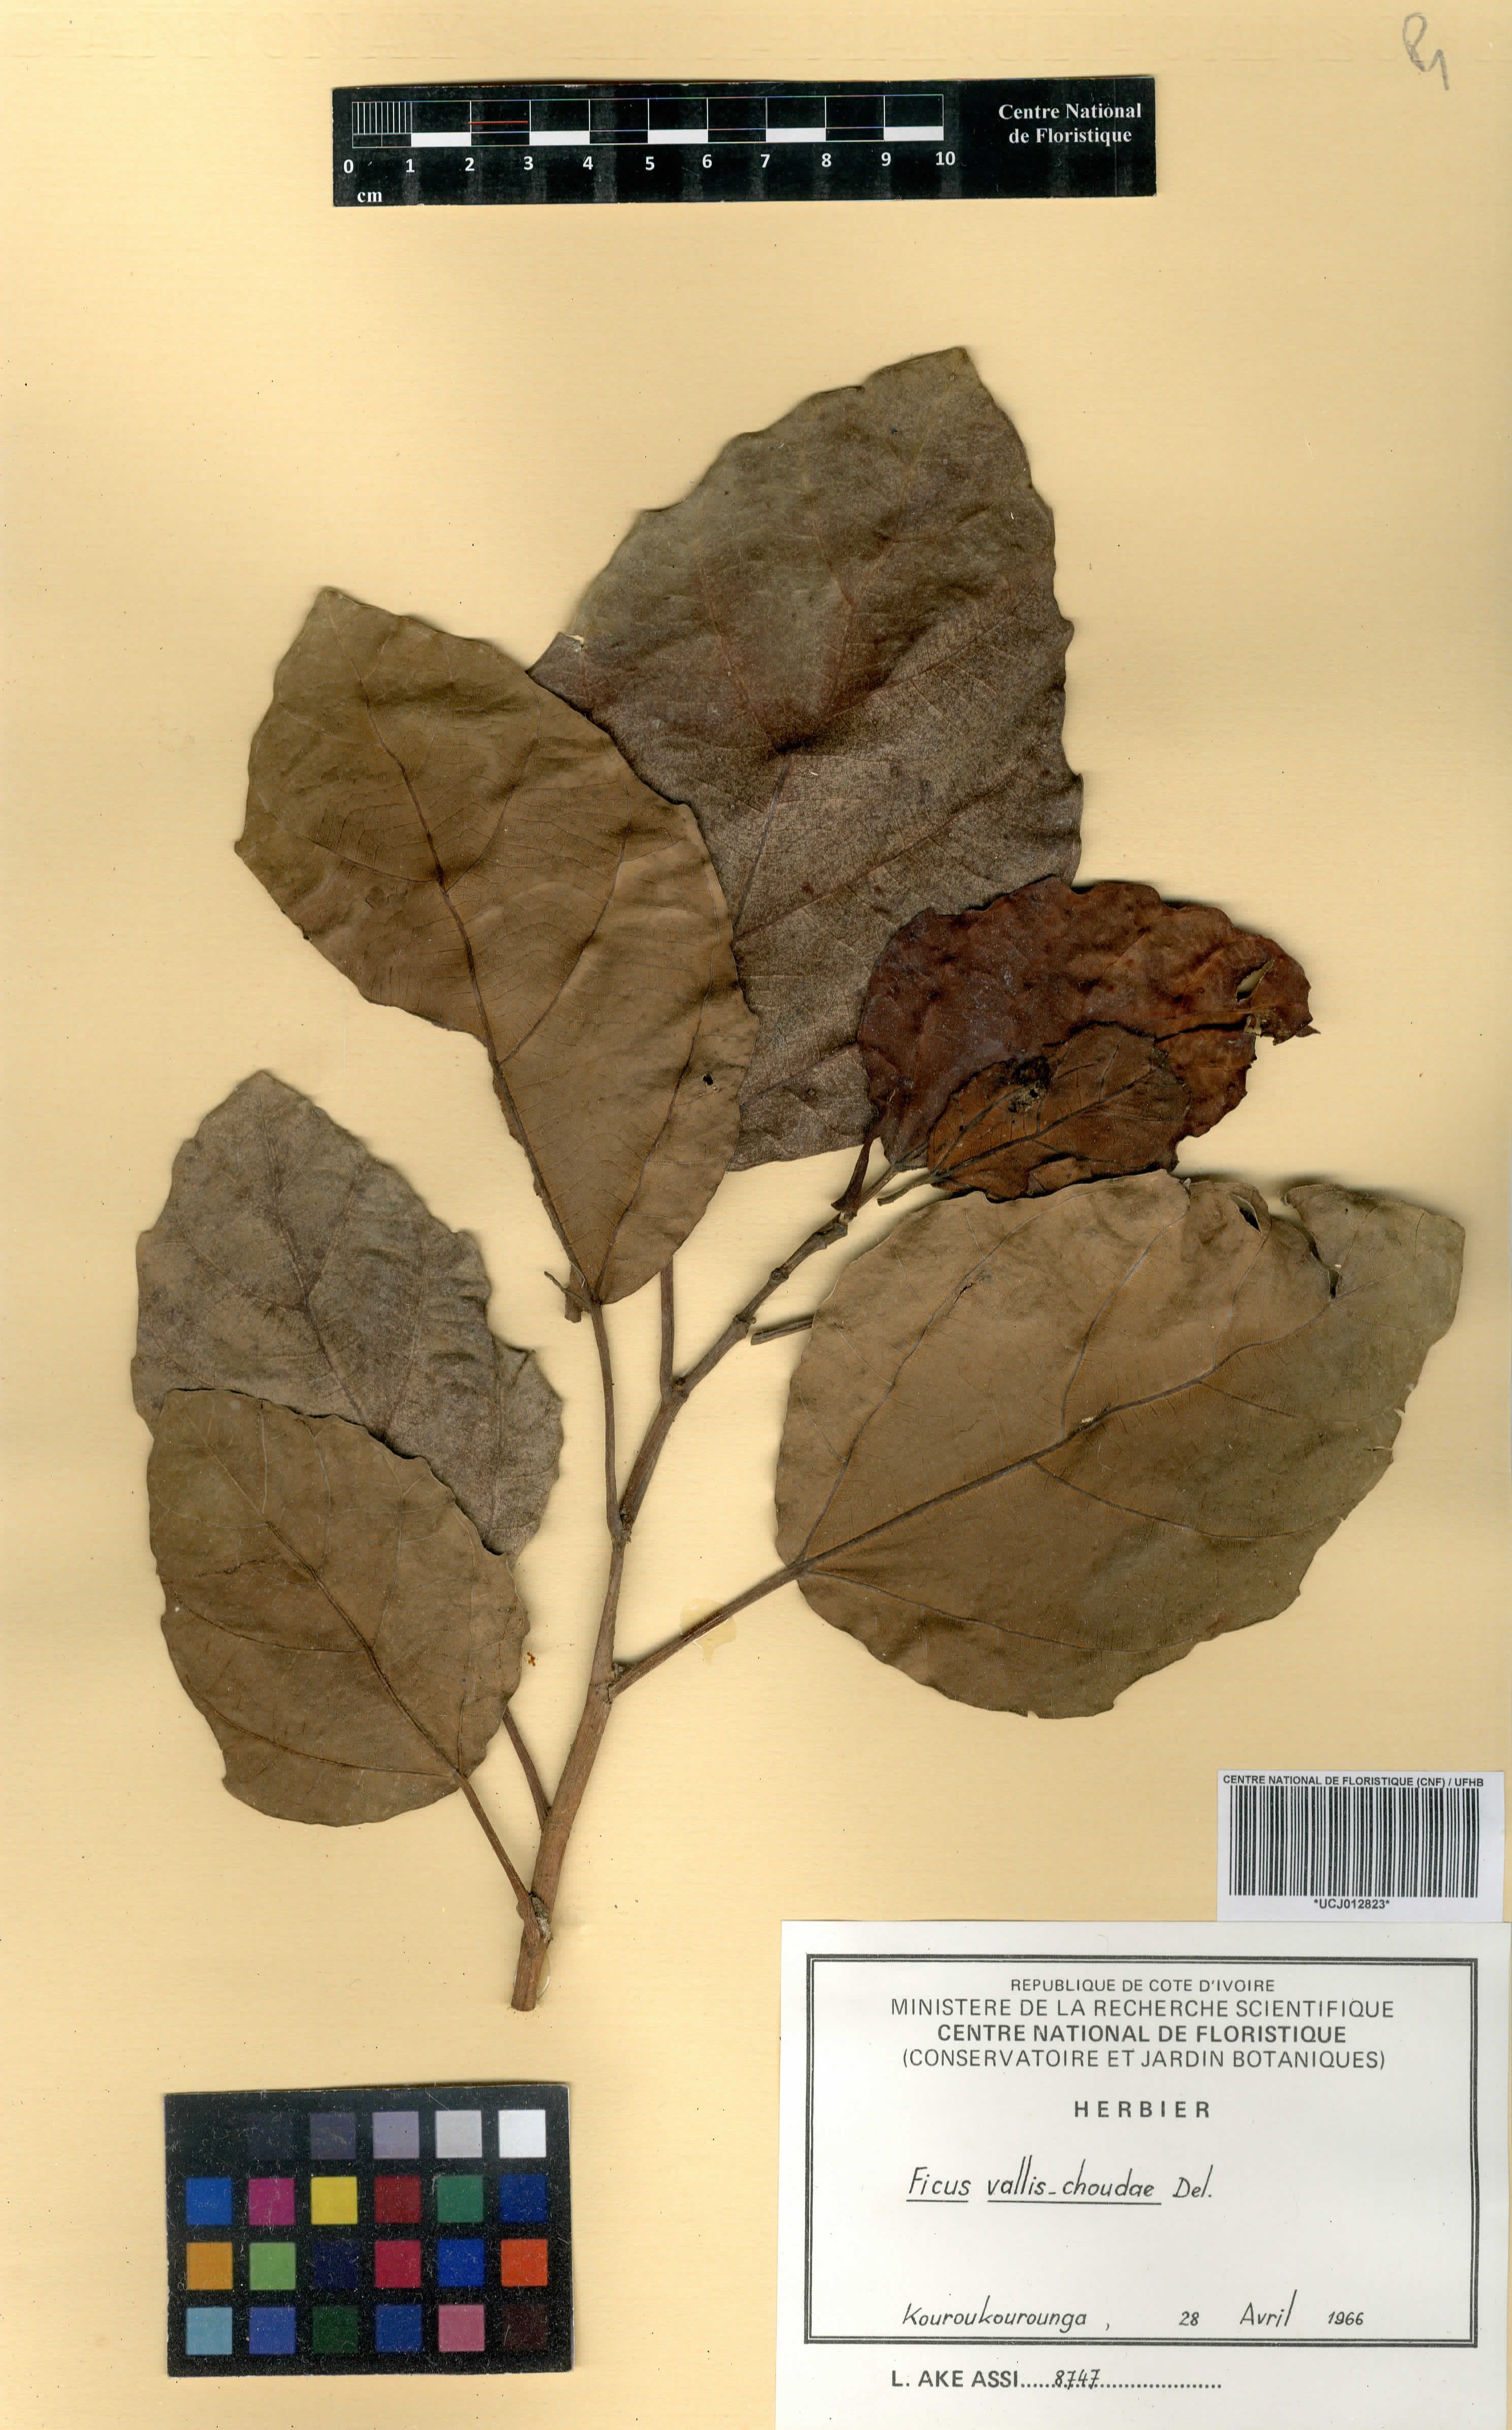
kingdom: Plantae
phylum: Tracheophyta
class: Magnoliopsida
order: Rosales
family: Moraceae
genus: Ficus
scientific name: Ficus vallis-choudae
